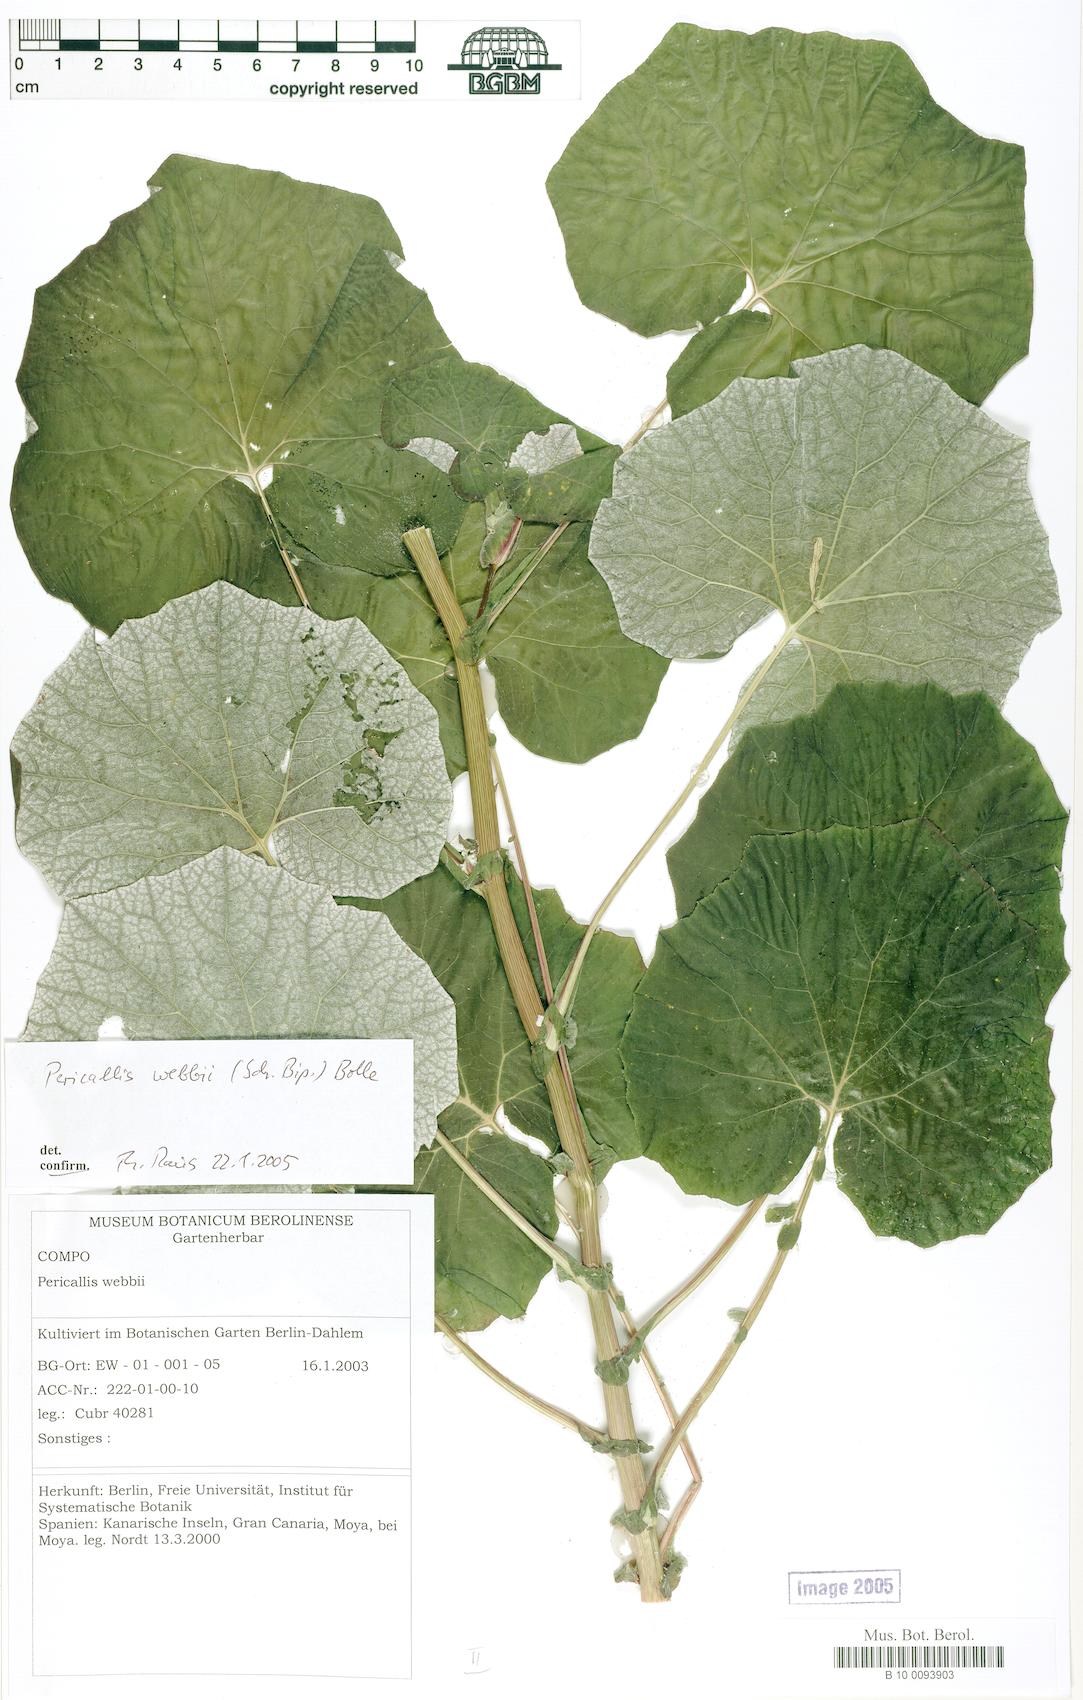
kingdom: Plantae
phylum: Tracheophyta
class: Magnoliopsida
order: Asterales
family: Asteraceae
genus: Pericallis
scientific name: Pericallis webbii
